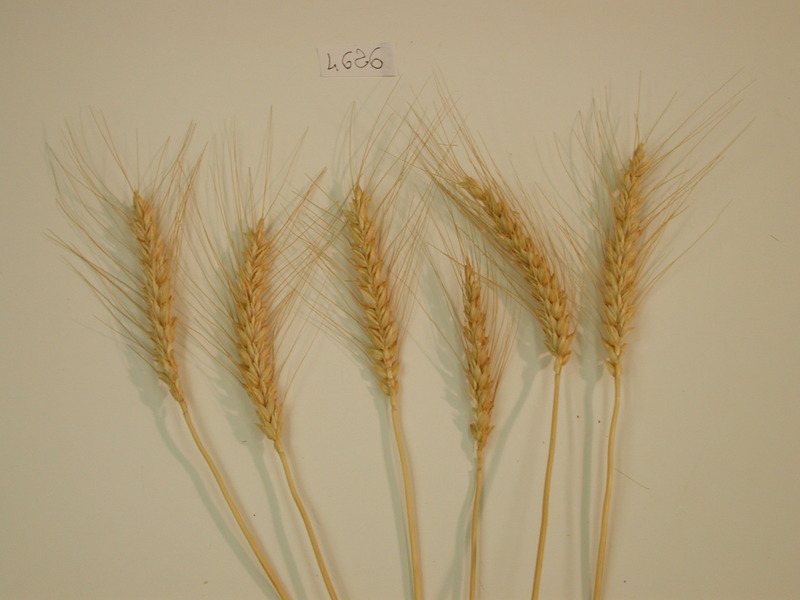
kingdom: Plantae
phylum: Tracheophyta
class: Liliopsida
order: Poales
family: Poaceae
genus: Triticum
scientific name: Triticum aestivum
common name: Wheat
